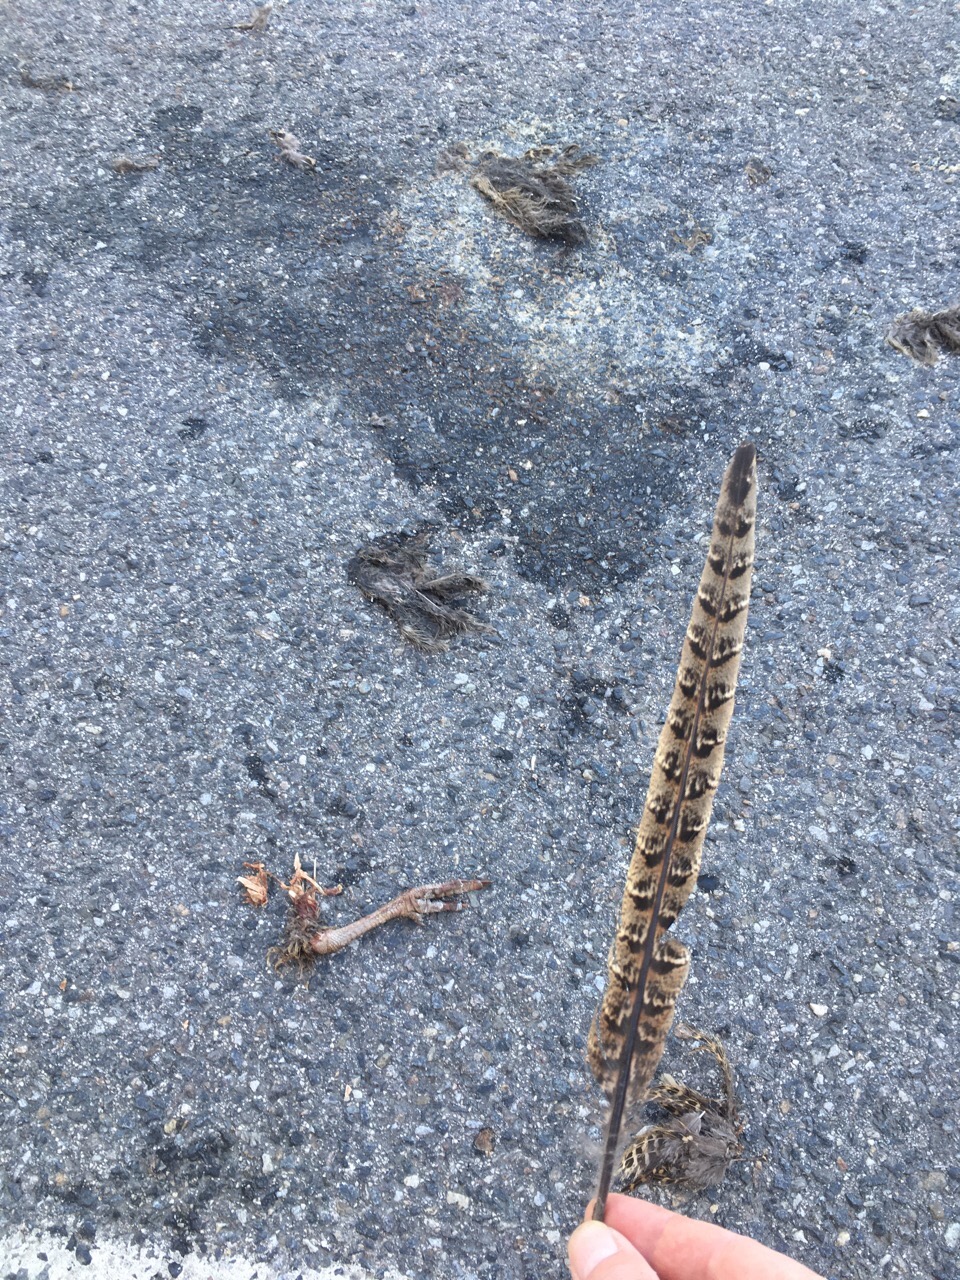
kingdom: Animalia
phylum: Chordata
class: Aves
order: Galliformes
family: Phasianidae
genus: Phasianus
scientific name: Phasianus colchicus
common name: Common pheasant
